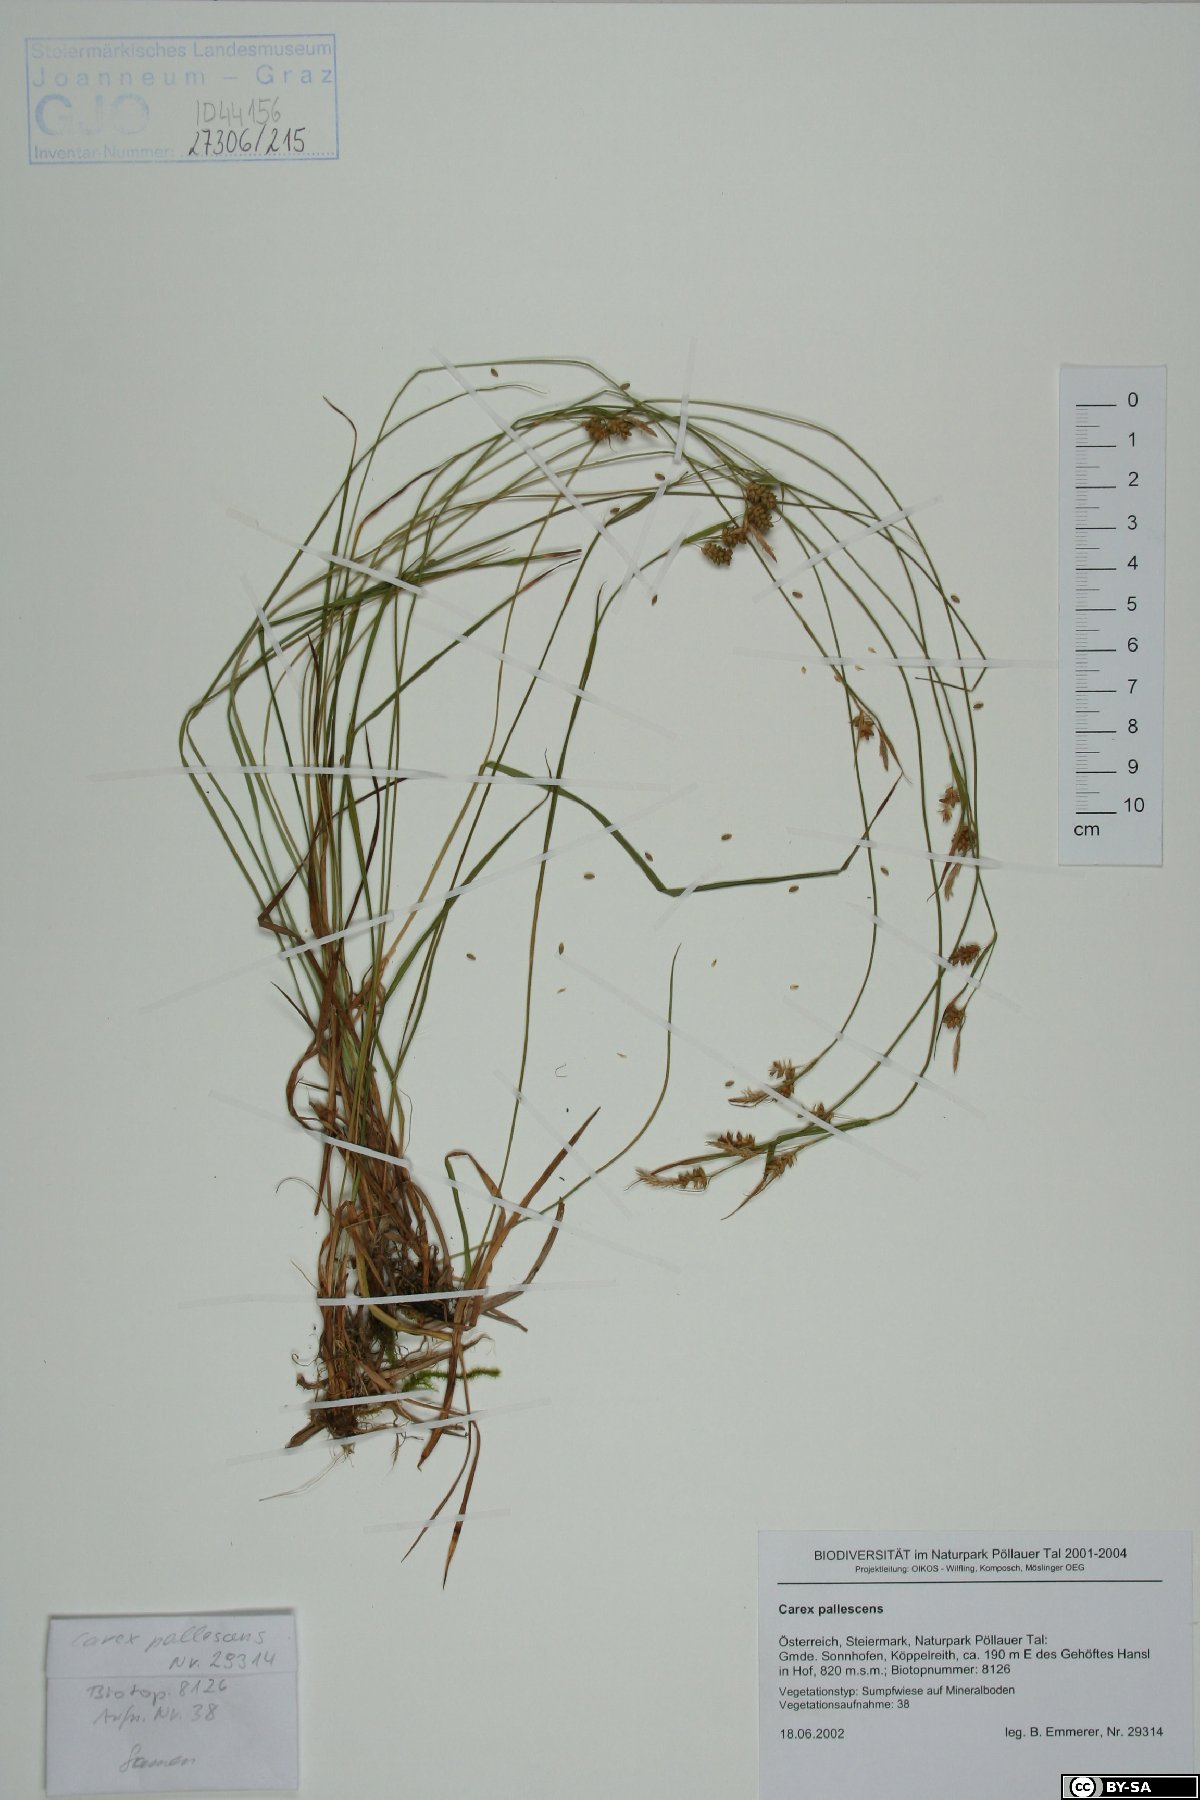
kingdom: Plantae
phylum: Tracheophyta
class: Liliopsida
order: Poales
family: Cyperaceae
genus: Carex
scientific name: Carex pallescens
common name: Pale sedge
